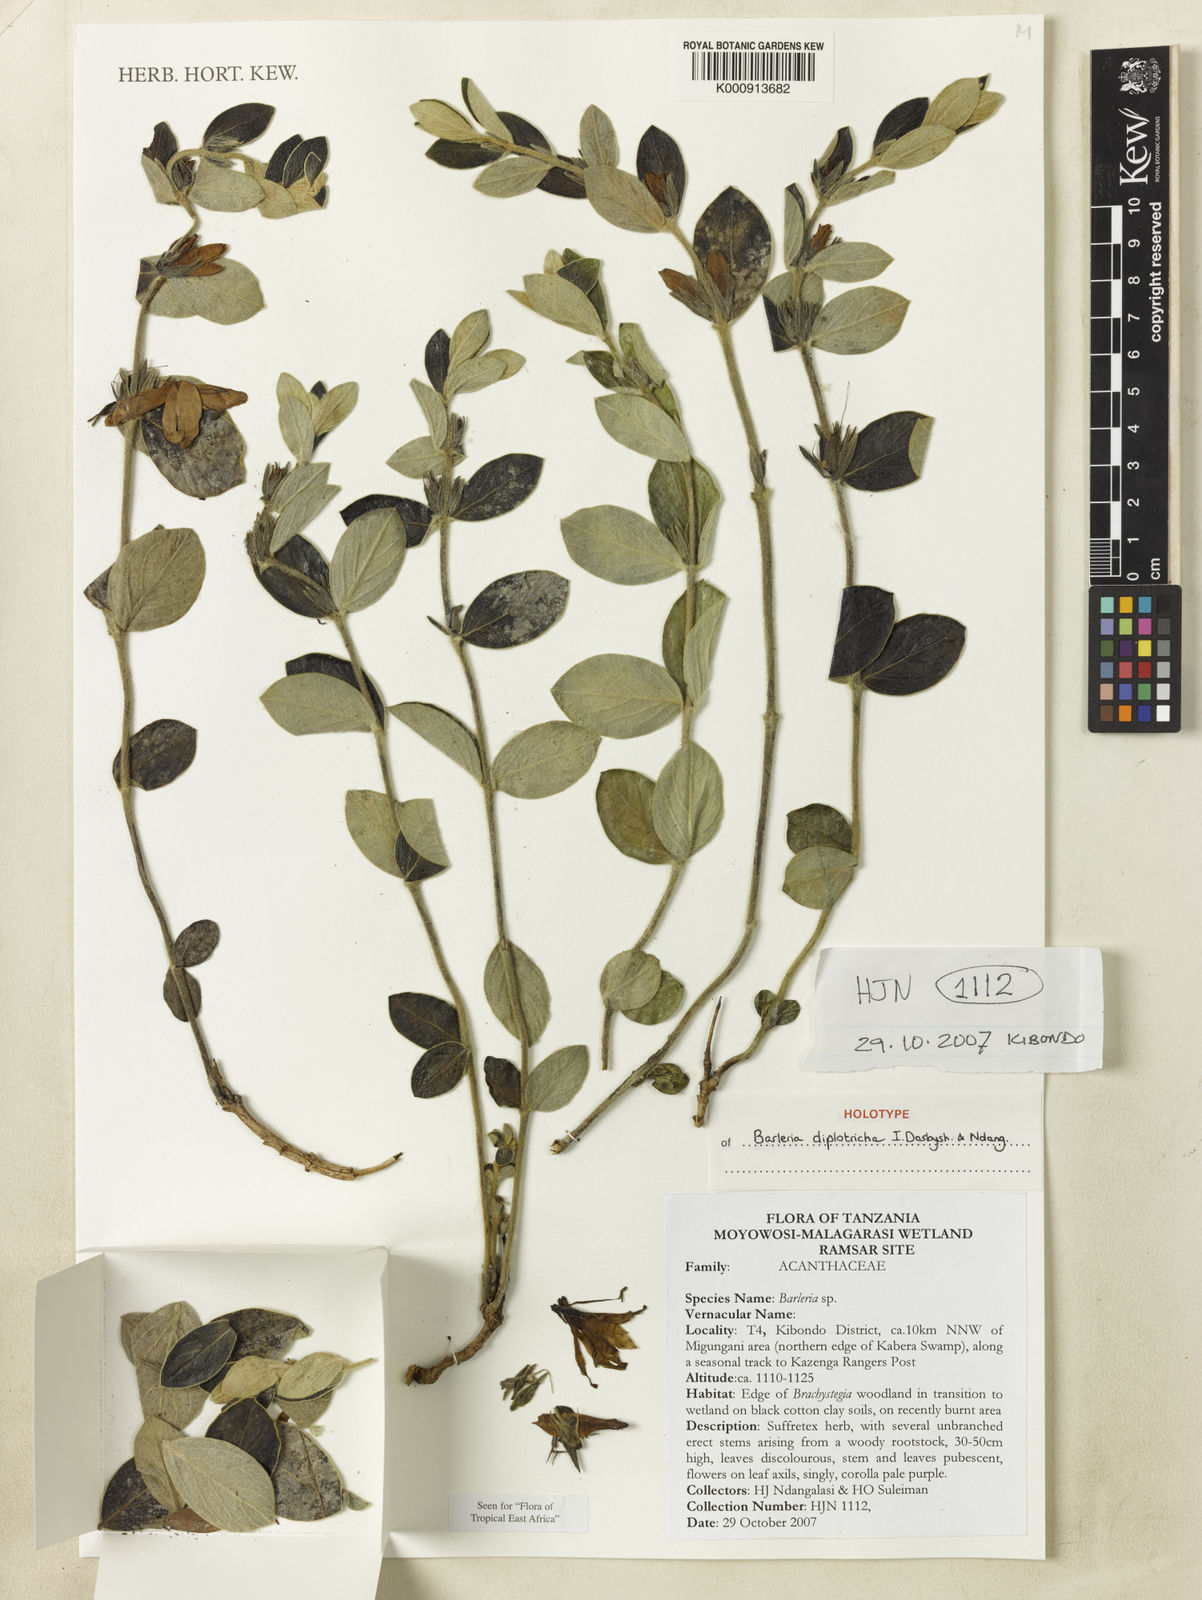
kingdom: Plantae
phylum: Tracheophyta
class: Magnoliopsida
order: Lamiales
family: Acanthaceae
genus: Barleria
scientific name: Barleria diplotricha
